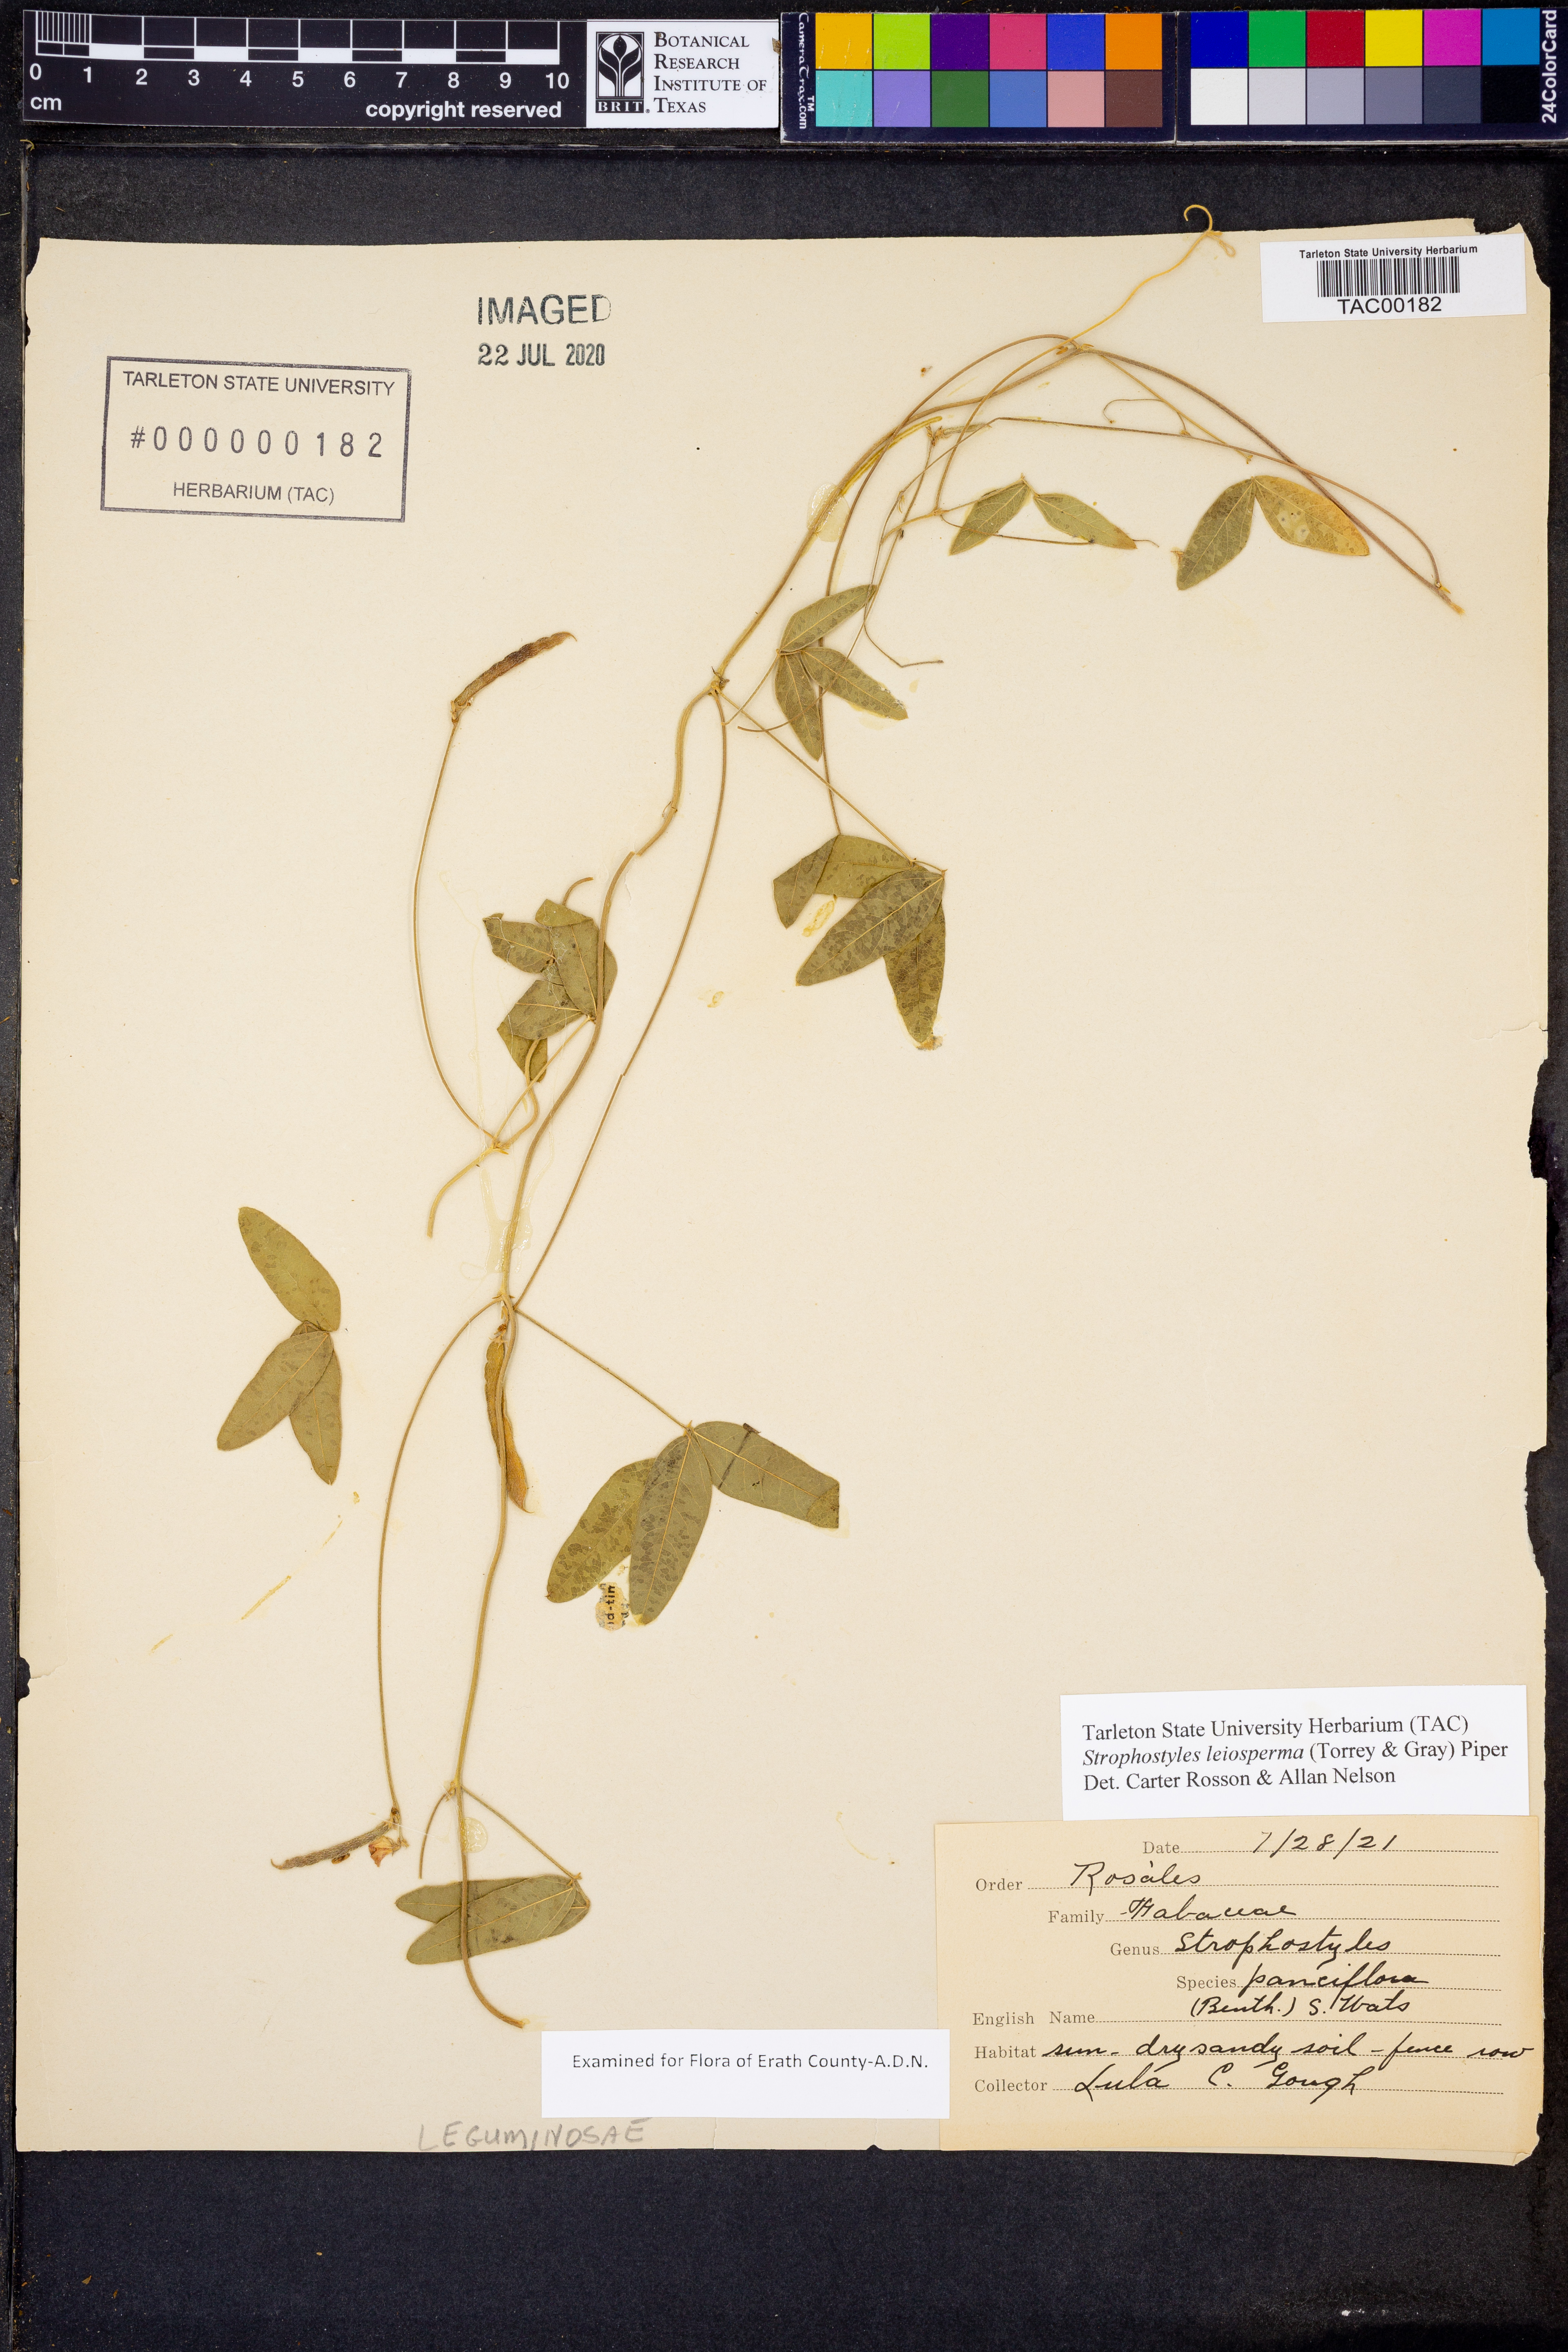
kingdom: Plantae
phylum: Tracheophyta
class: Magnoliopsida
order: Fabales
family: Fabaceae
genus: Strophostyles
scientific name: Strophostyles leiosperma
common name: Smooth-seed wild bean
